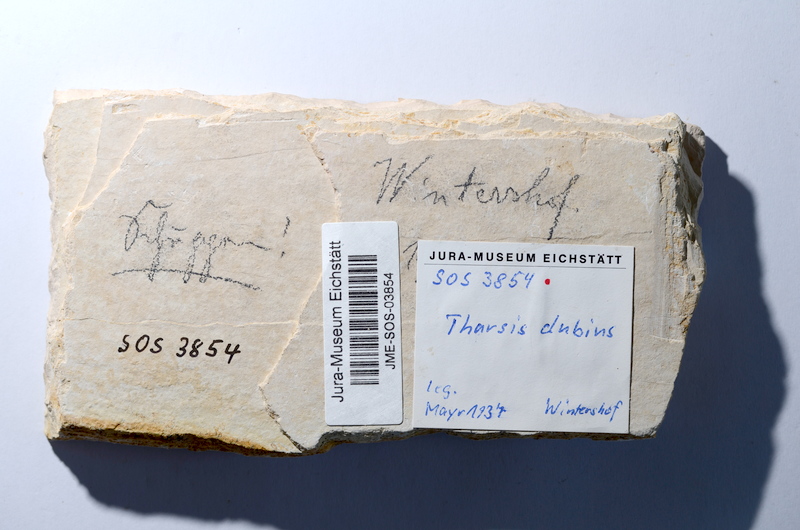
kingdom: Animalia
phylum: Chordata
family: Ascalaboidae
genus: Tharsis
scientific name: Tharsis dubius
